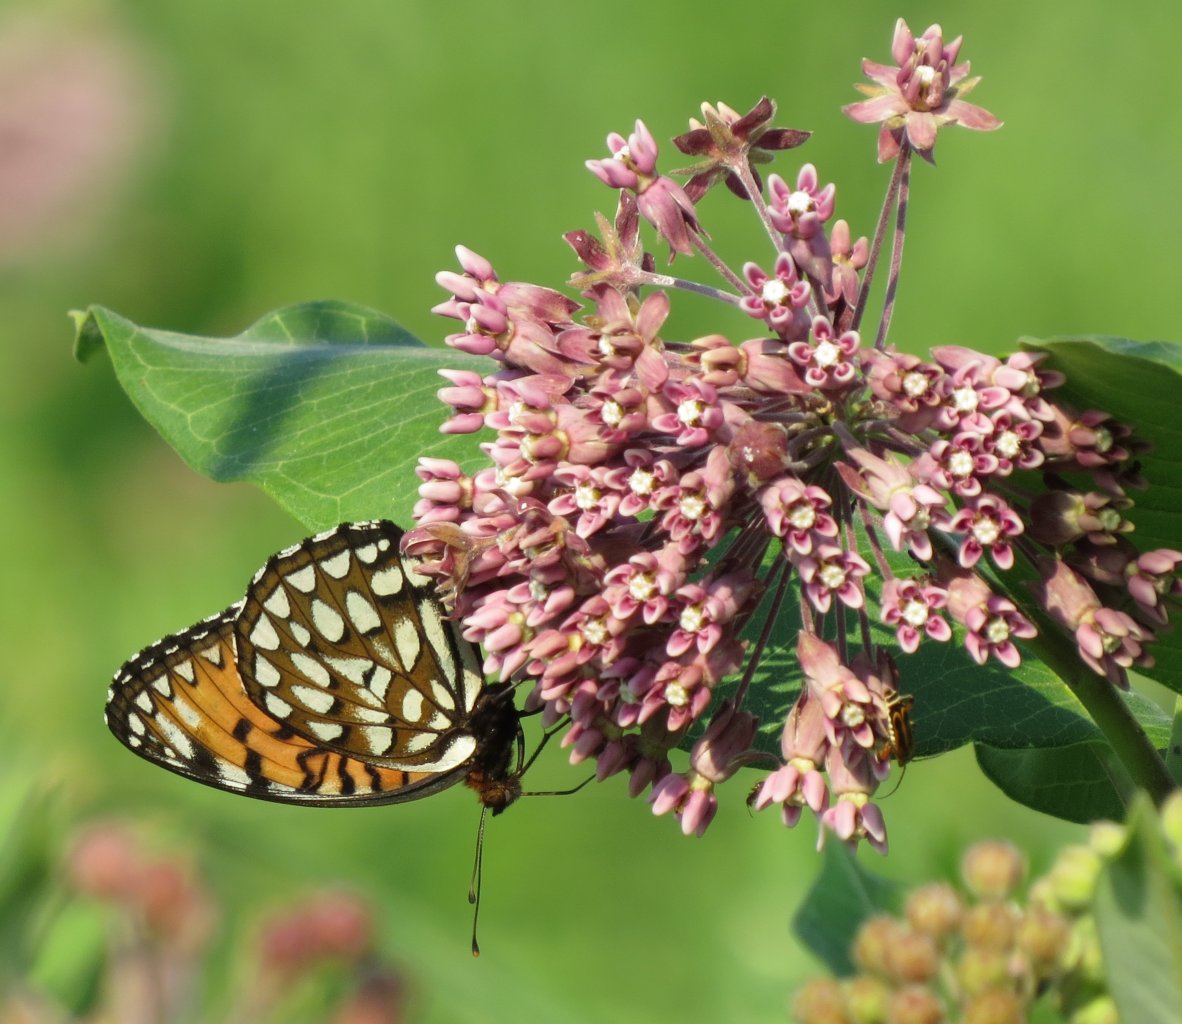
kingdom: Animalia
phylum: Arthropoda
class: Insecta
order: Lepidoptera
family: Nymphalidae
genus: Speyeria
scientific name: Speyeria idalia
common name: Regal Fritillary
